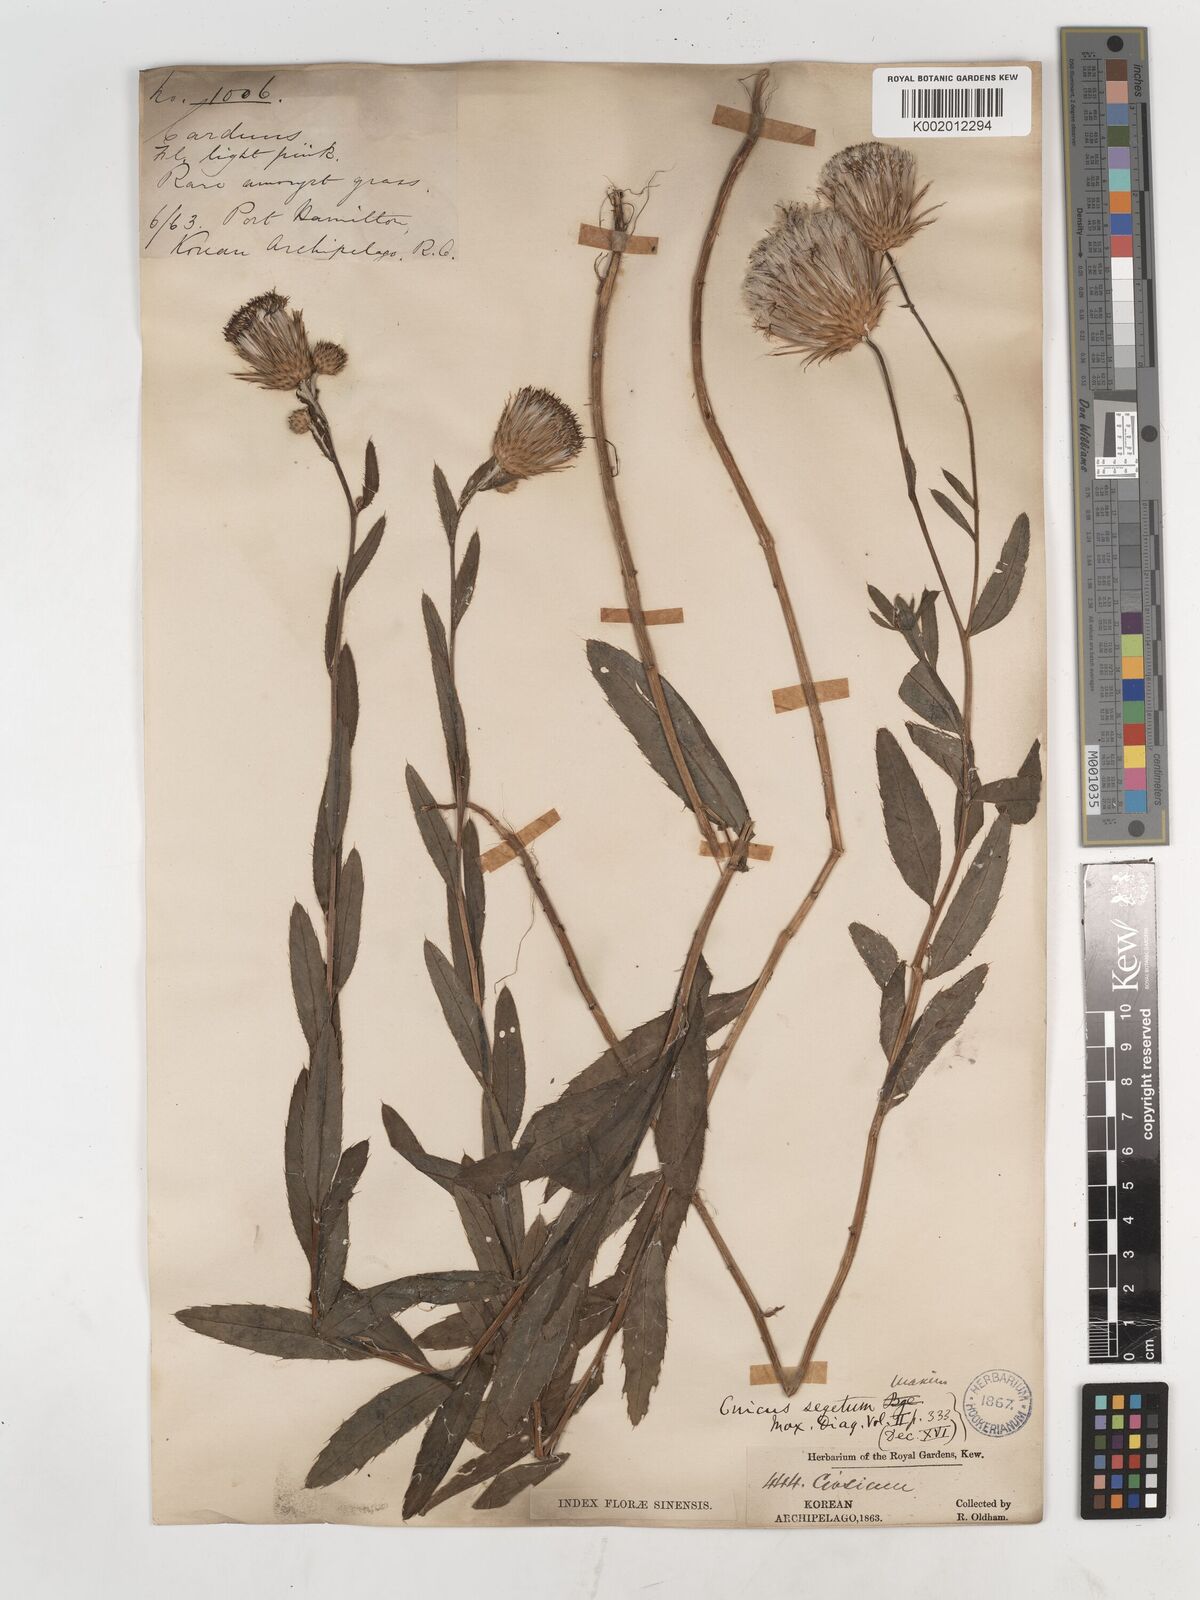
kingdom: Plantae
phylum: Tracheophyta
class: Magnoliopsida
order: Asterales
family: Asteraceae
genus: Cirsium
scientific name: Cirsium arvense
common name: Creeping thistle
